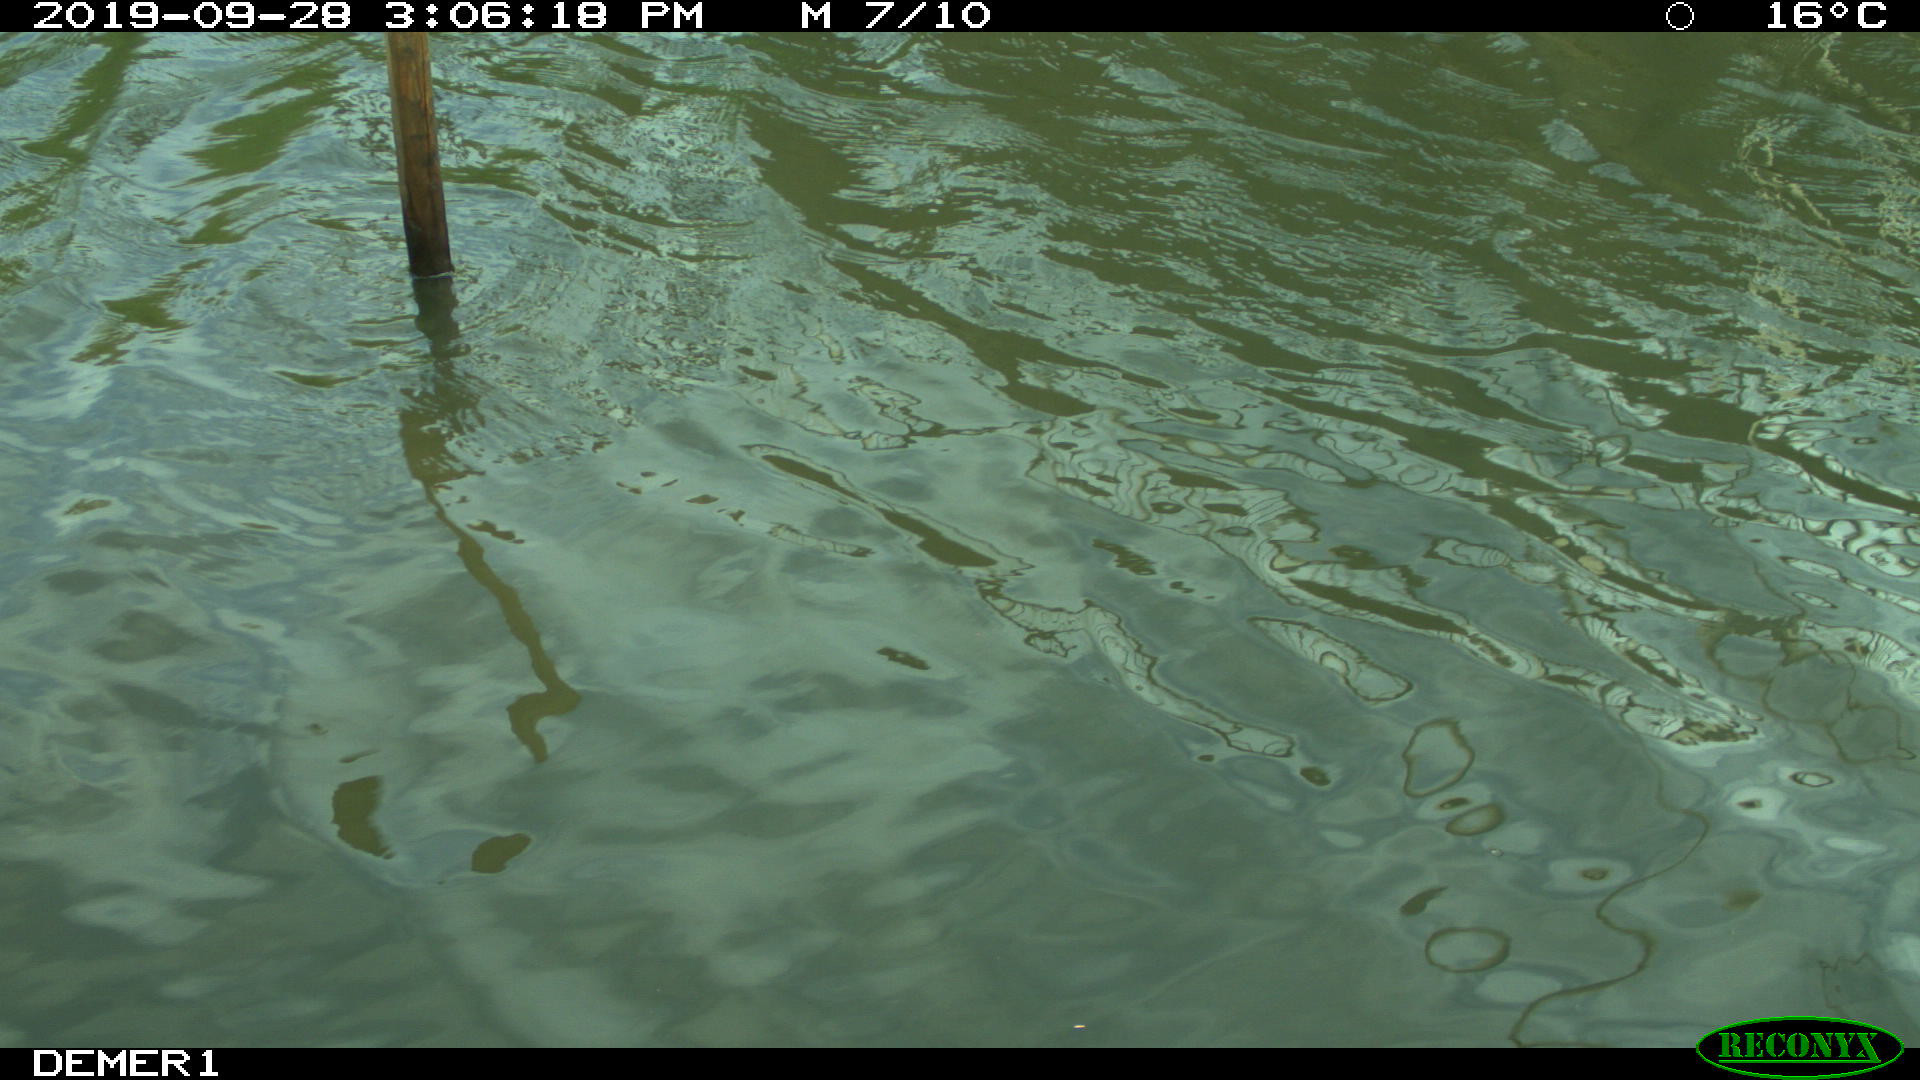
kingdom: Animalia
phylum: Chordata
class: Aves
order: Gruiformes
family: Rallidae
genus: Gallinula
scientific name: Gallinula chloropus
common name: Common moorhen
